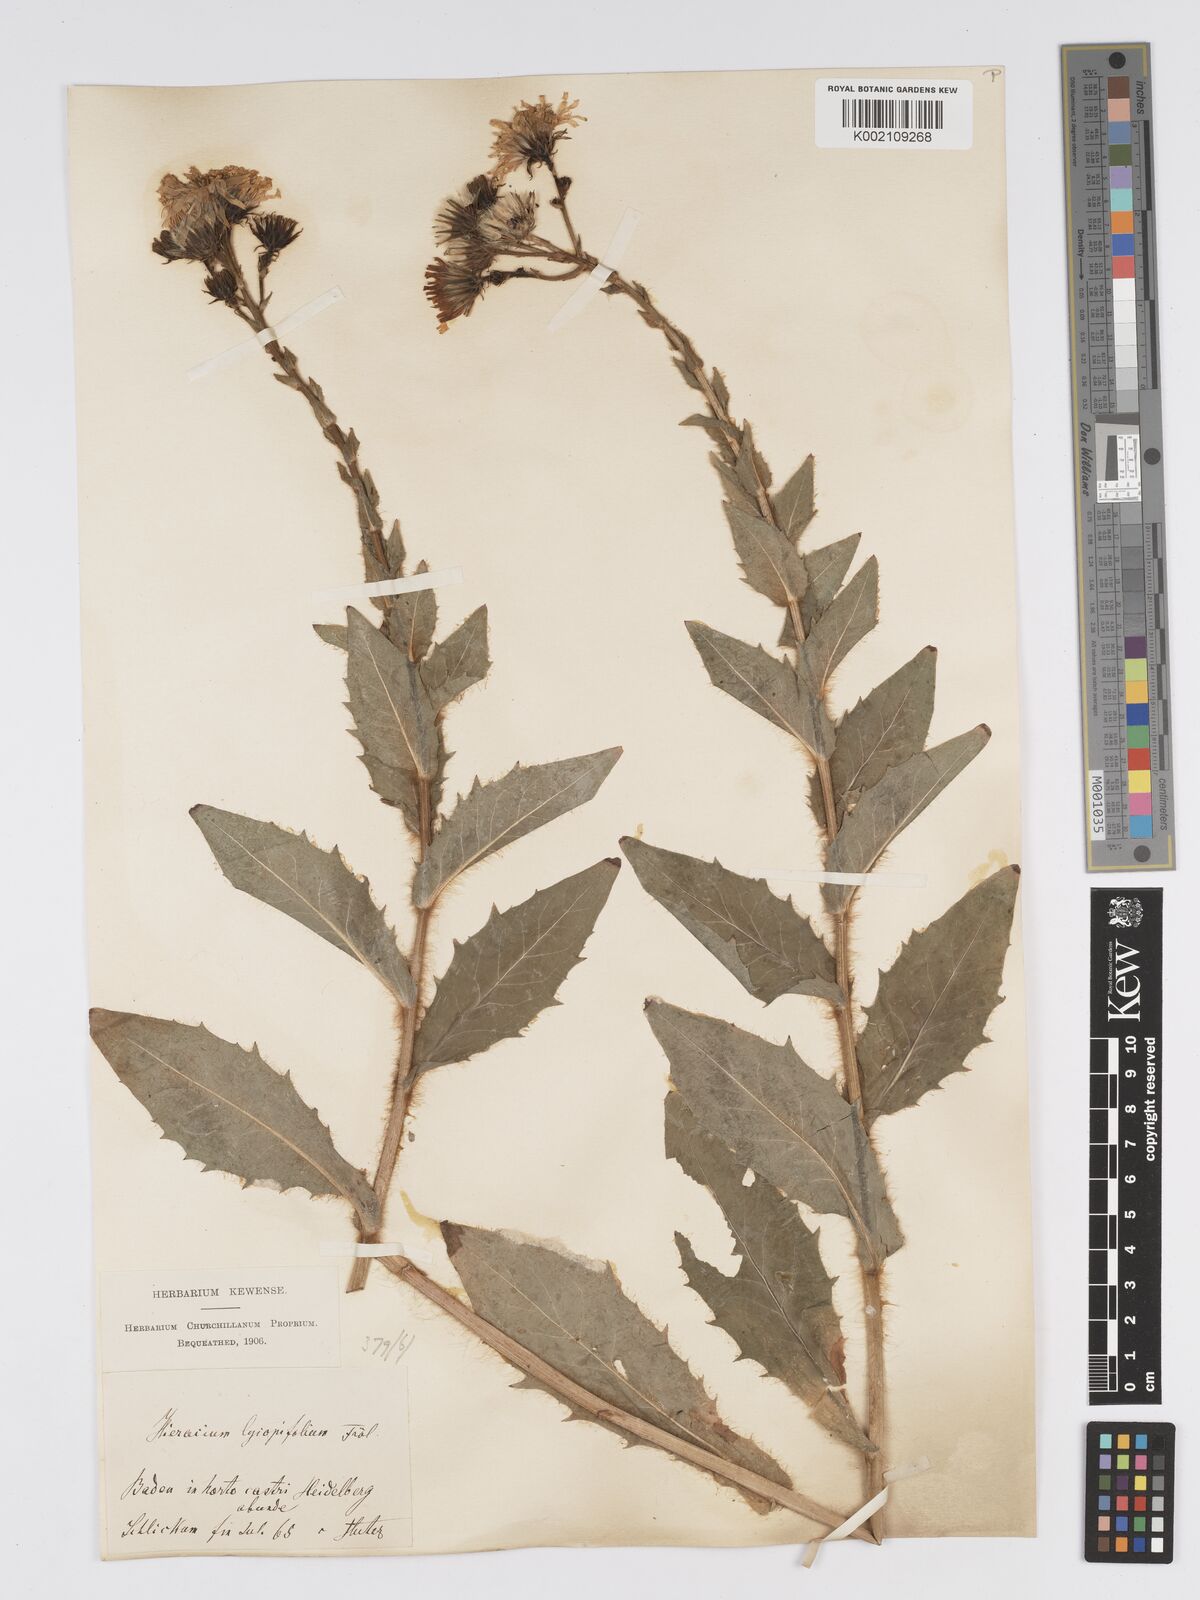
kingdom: Plantae
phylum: Tracheophyta
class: Magnoliopsida
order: Asterales
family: Asteraceae
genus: Hieracium
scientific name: Hieracium lycopifolium
